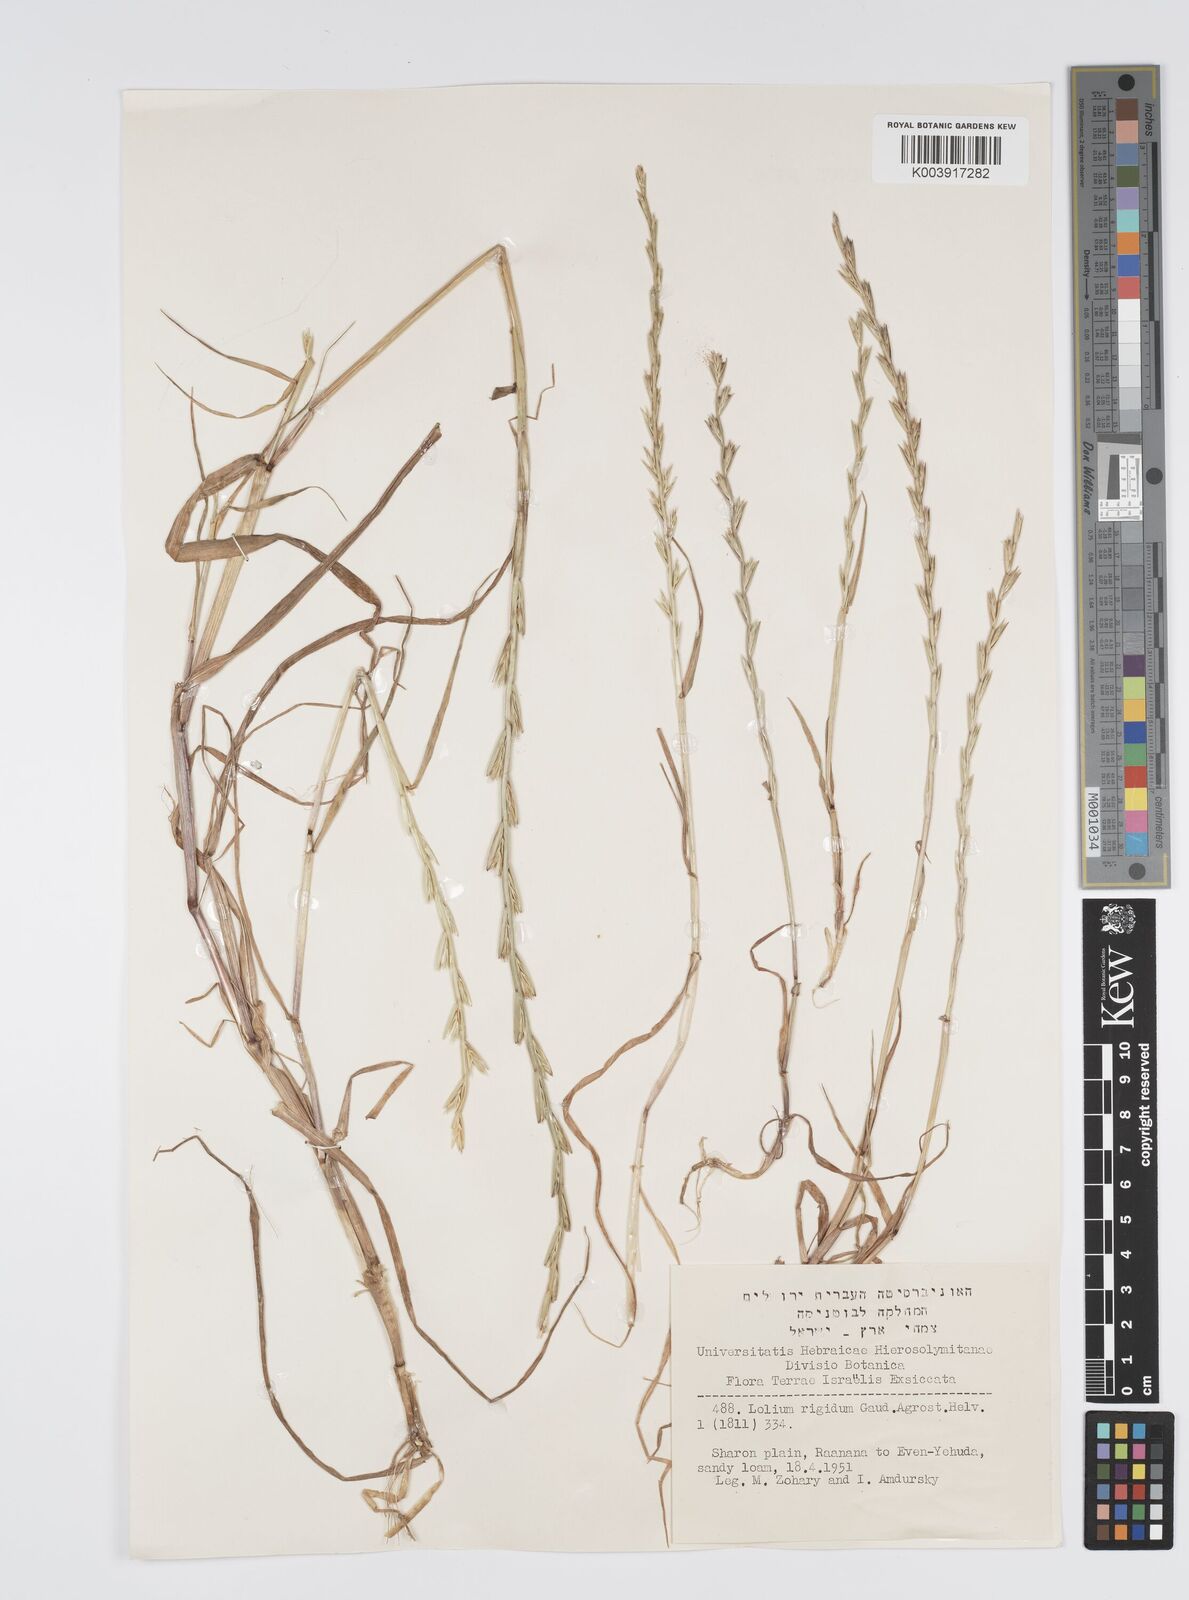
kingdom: Plantae
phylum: Tracheophyta
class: Liliopsida
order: Poales
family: Poaceae
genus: Lolium
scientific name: Lolium rigidum
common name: Wimmera ryegrass
